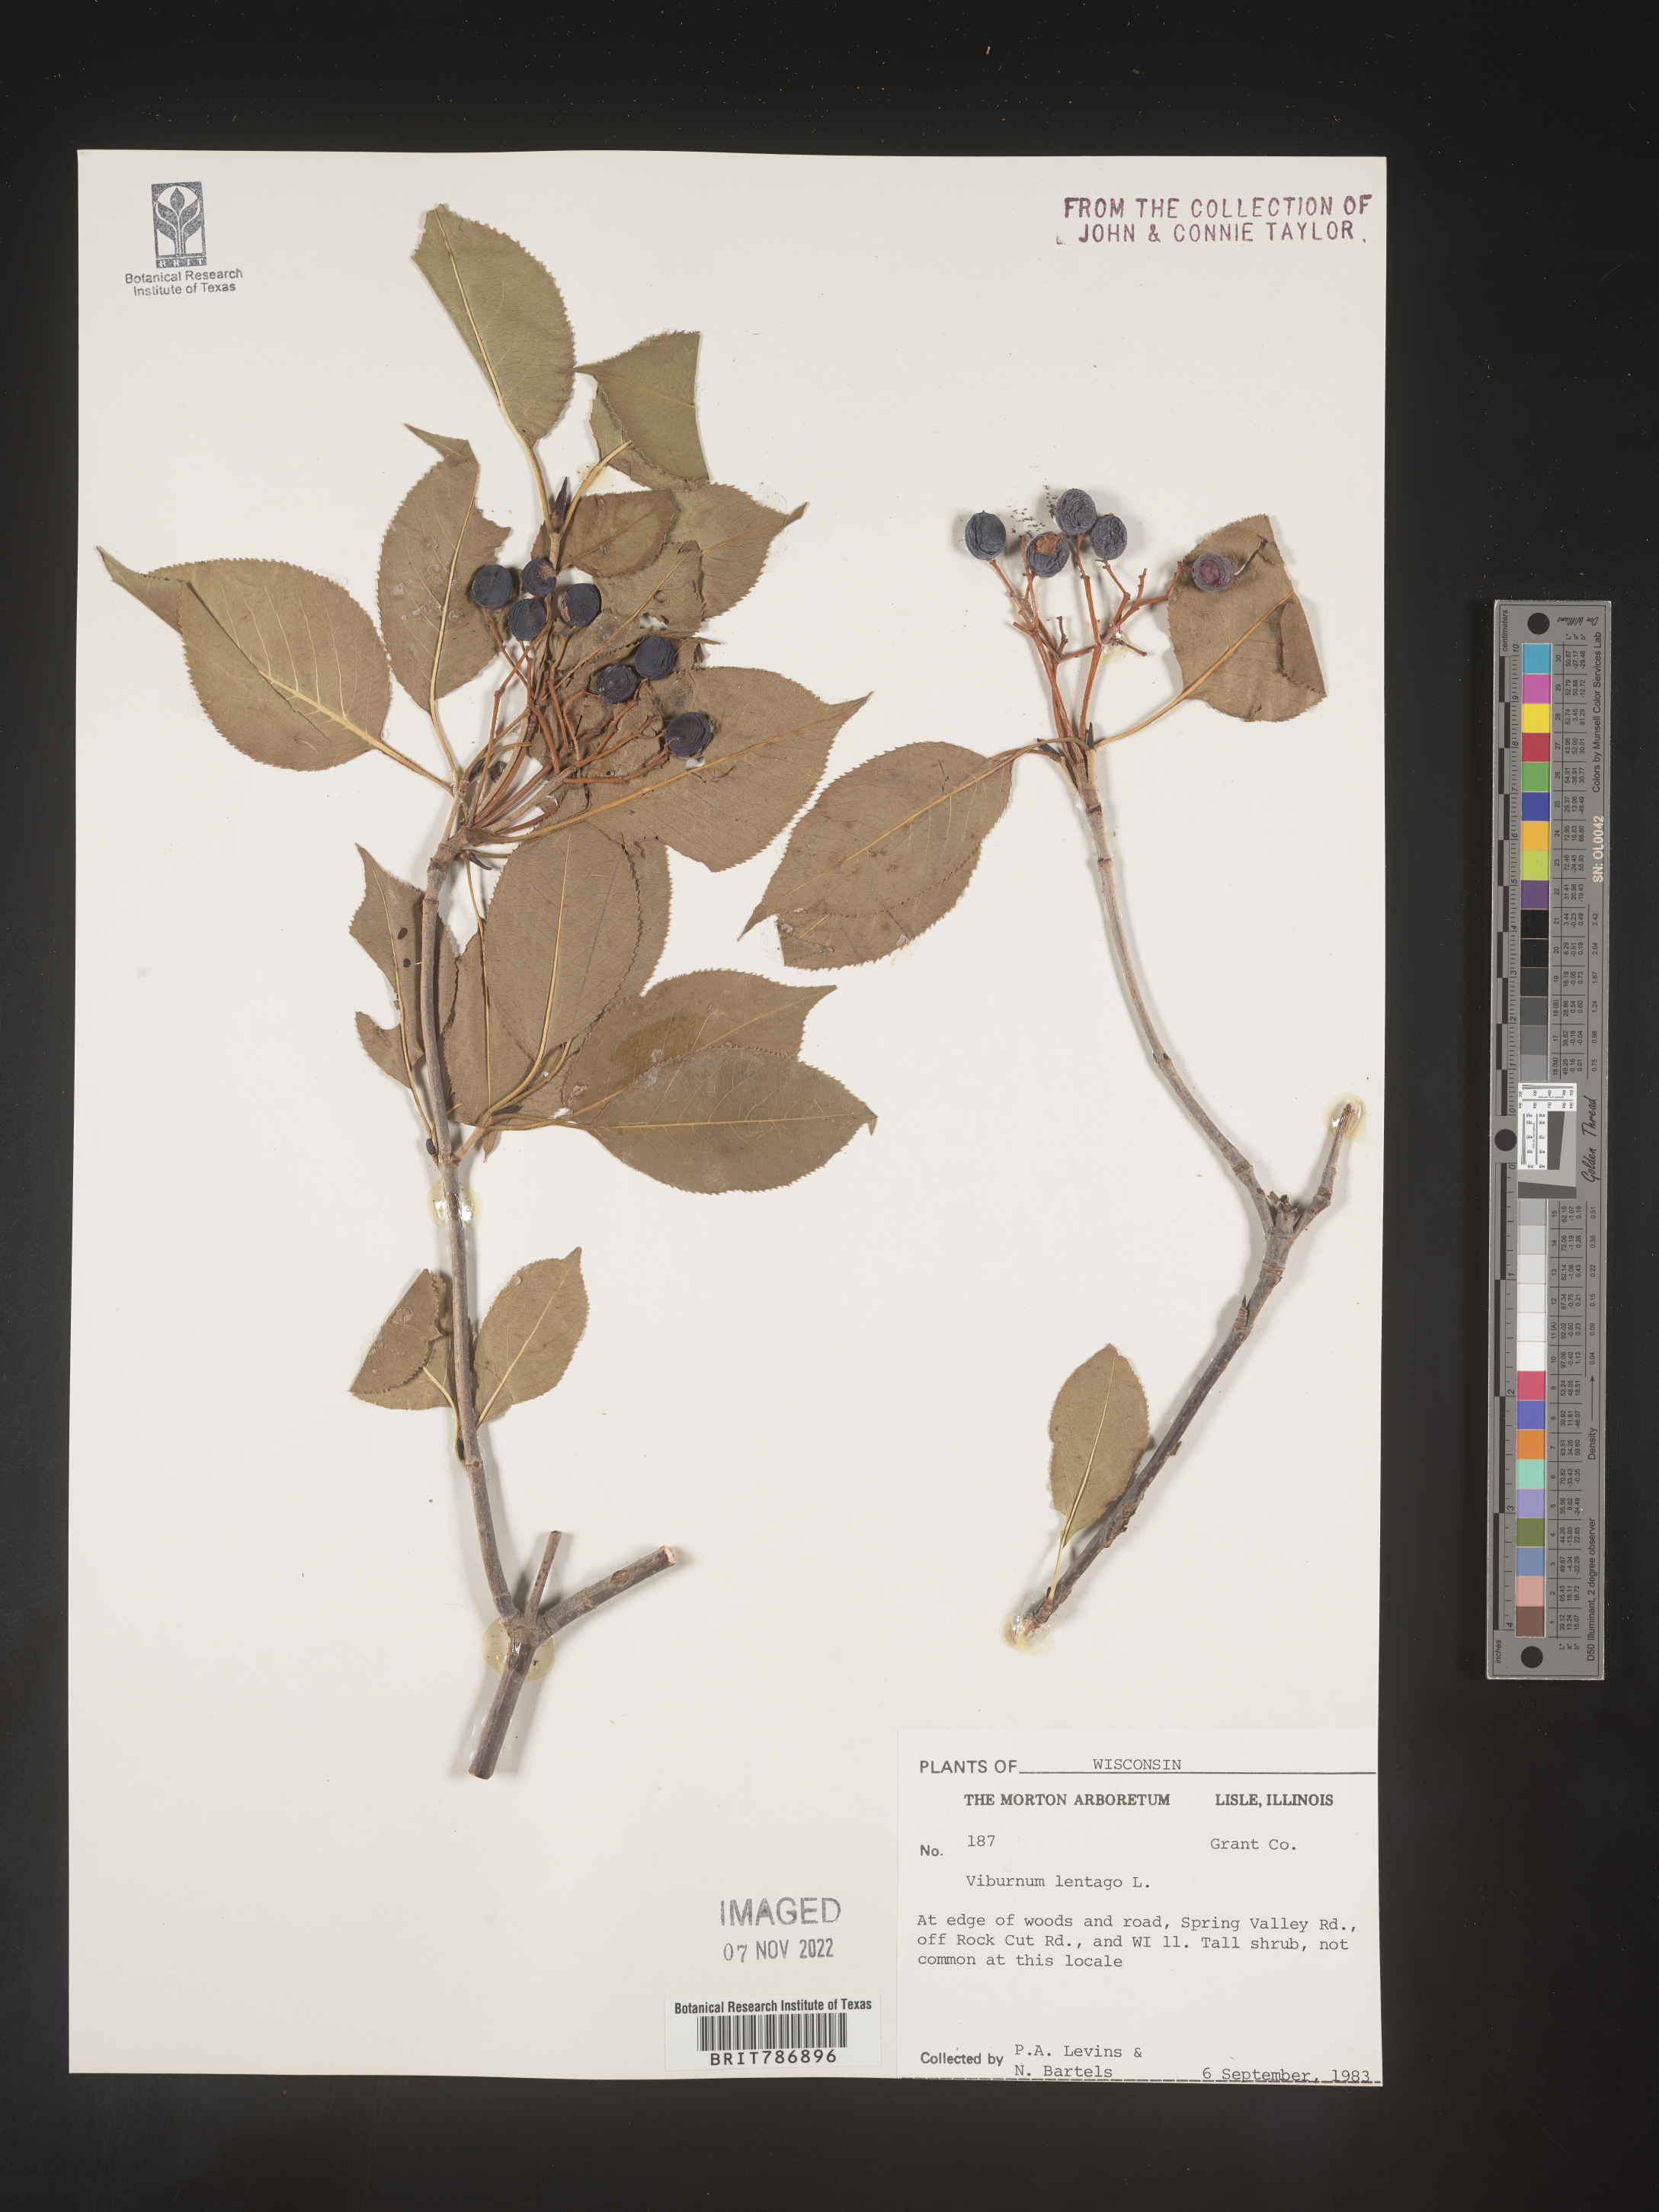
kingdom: Plantae
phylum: Tracheophyta
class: Magnoliopsida
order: Dipsacales
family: Viburnaceae
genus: Viburnum
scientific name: Viburnum lentago
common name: Black haw
